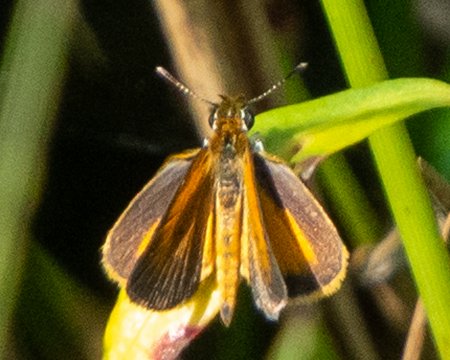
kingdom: Animalia
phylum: Arthropoda
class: Insecta
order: Lepidoptera
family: Hesperiidae
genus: Ancyloxypha
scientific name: Ancyloxypha numitor
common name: Least Skipper
